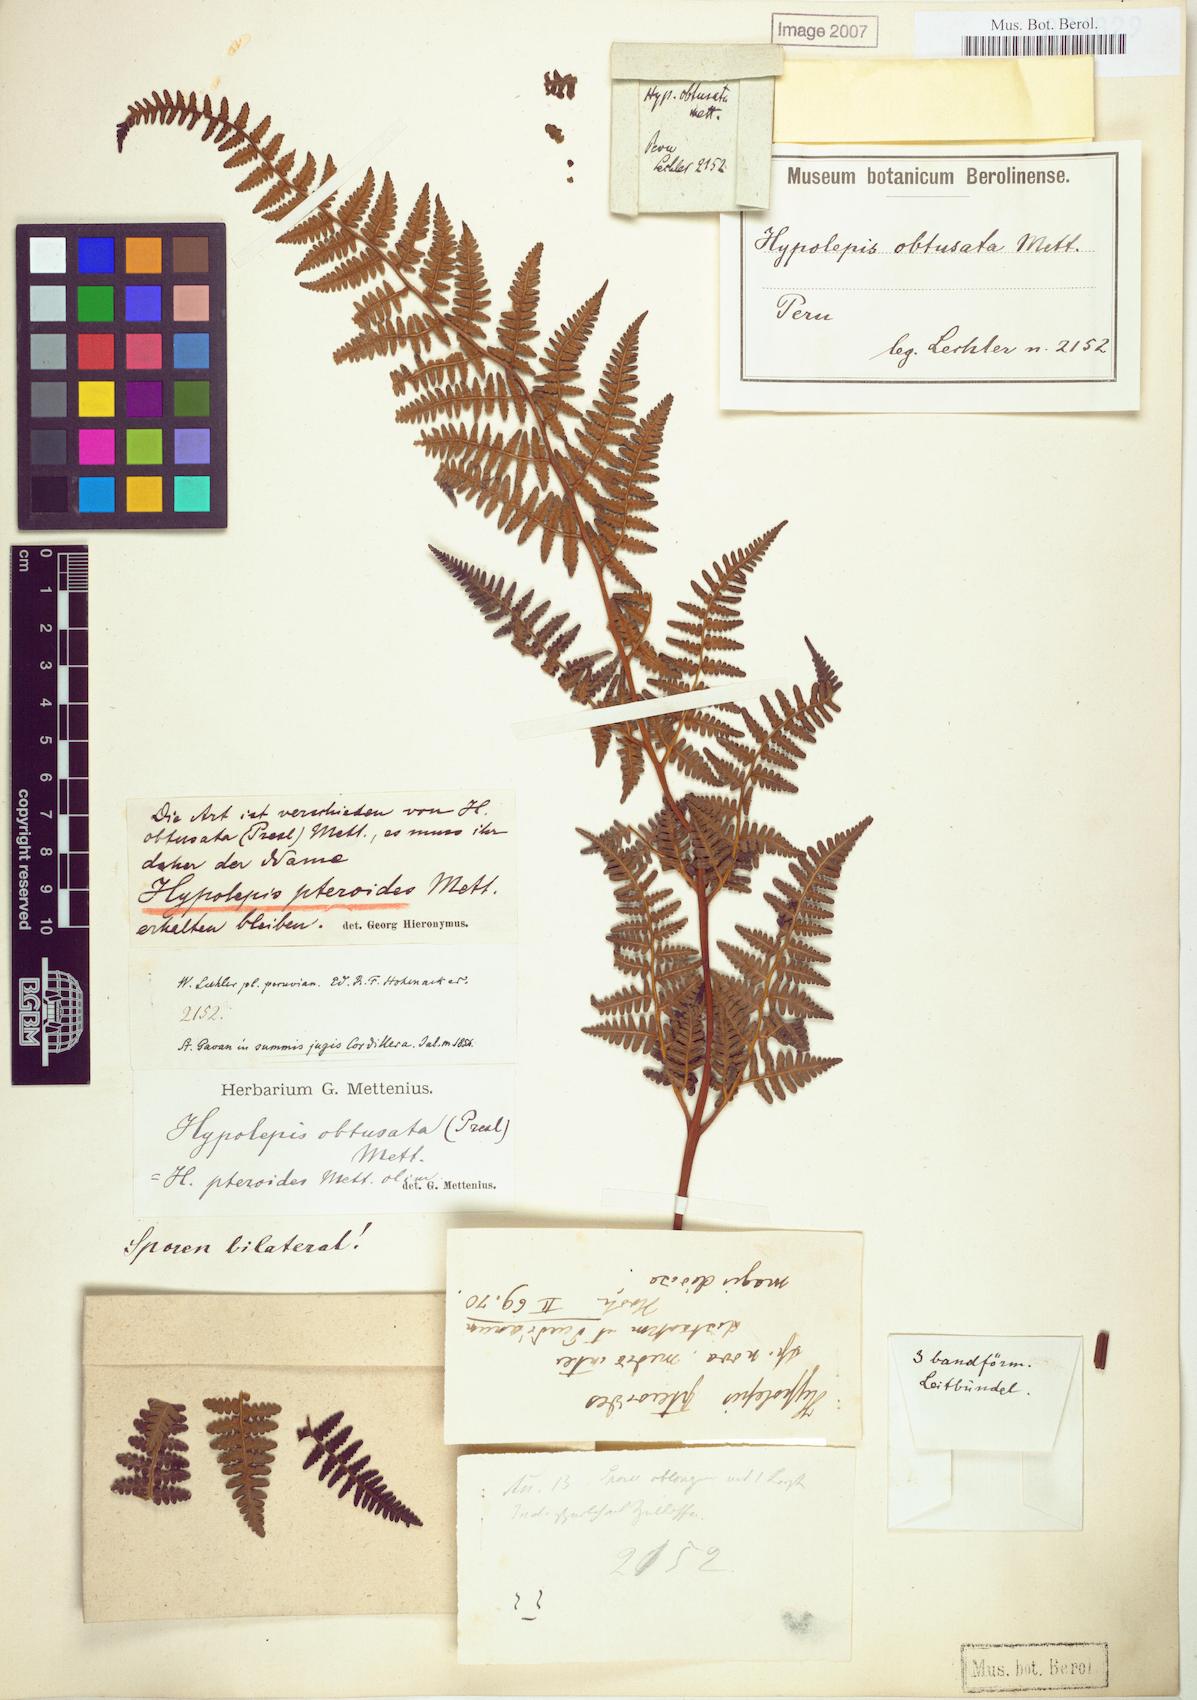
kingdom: Plantae
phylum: Tracheophyta
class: Polypodiopsida
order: Polypodiales
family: Dennstaedtiaceae
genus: Hypolepis
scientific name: Hypolepis pteroides
